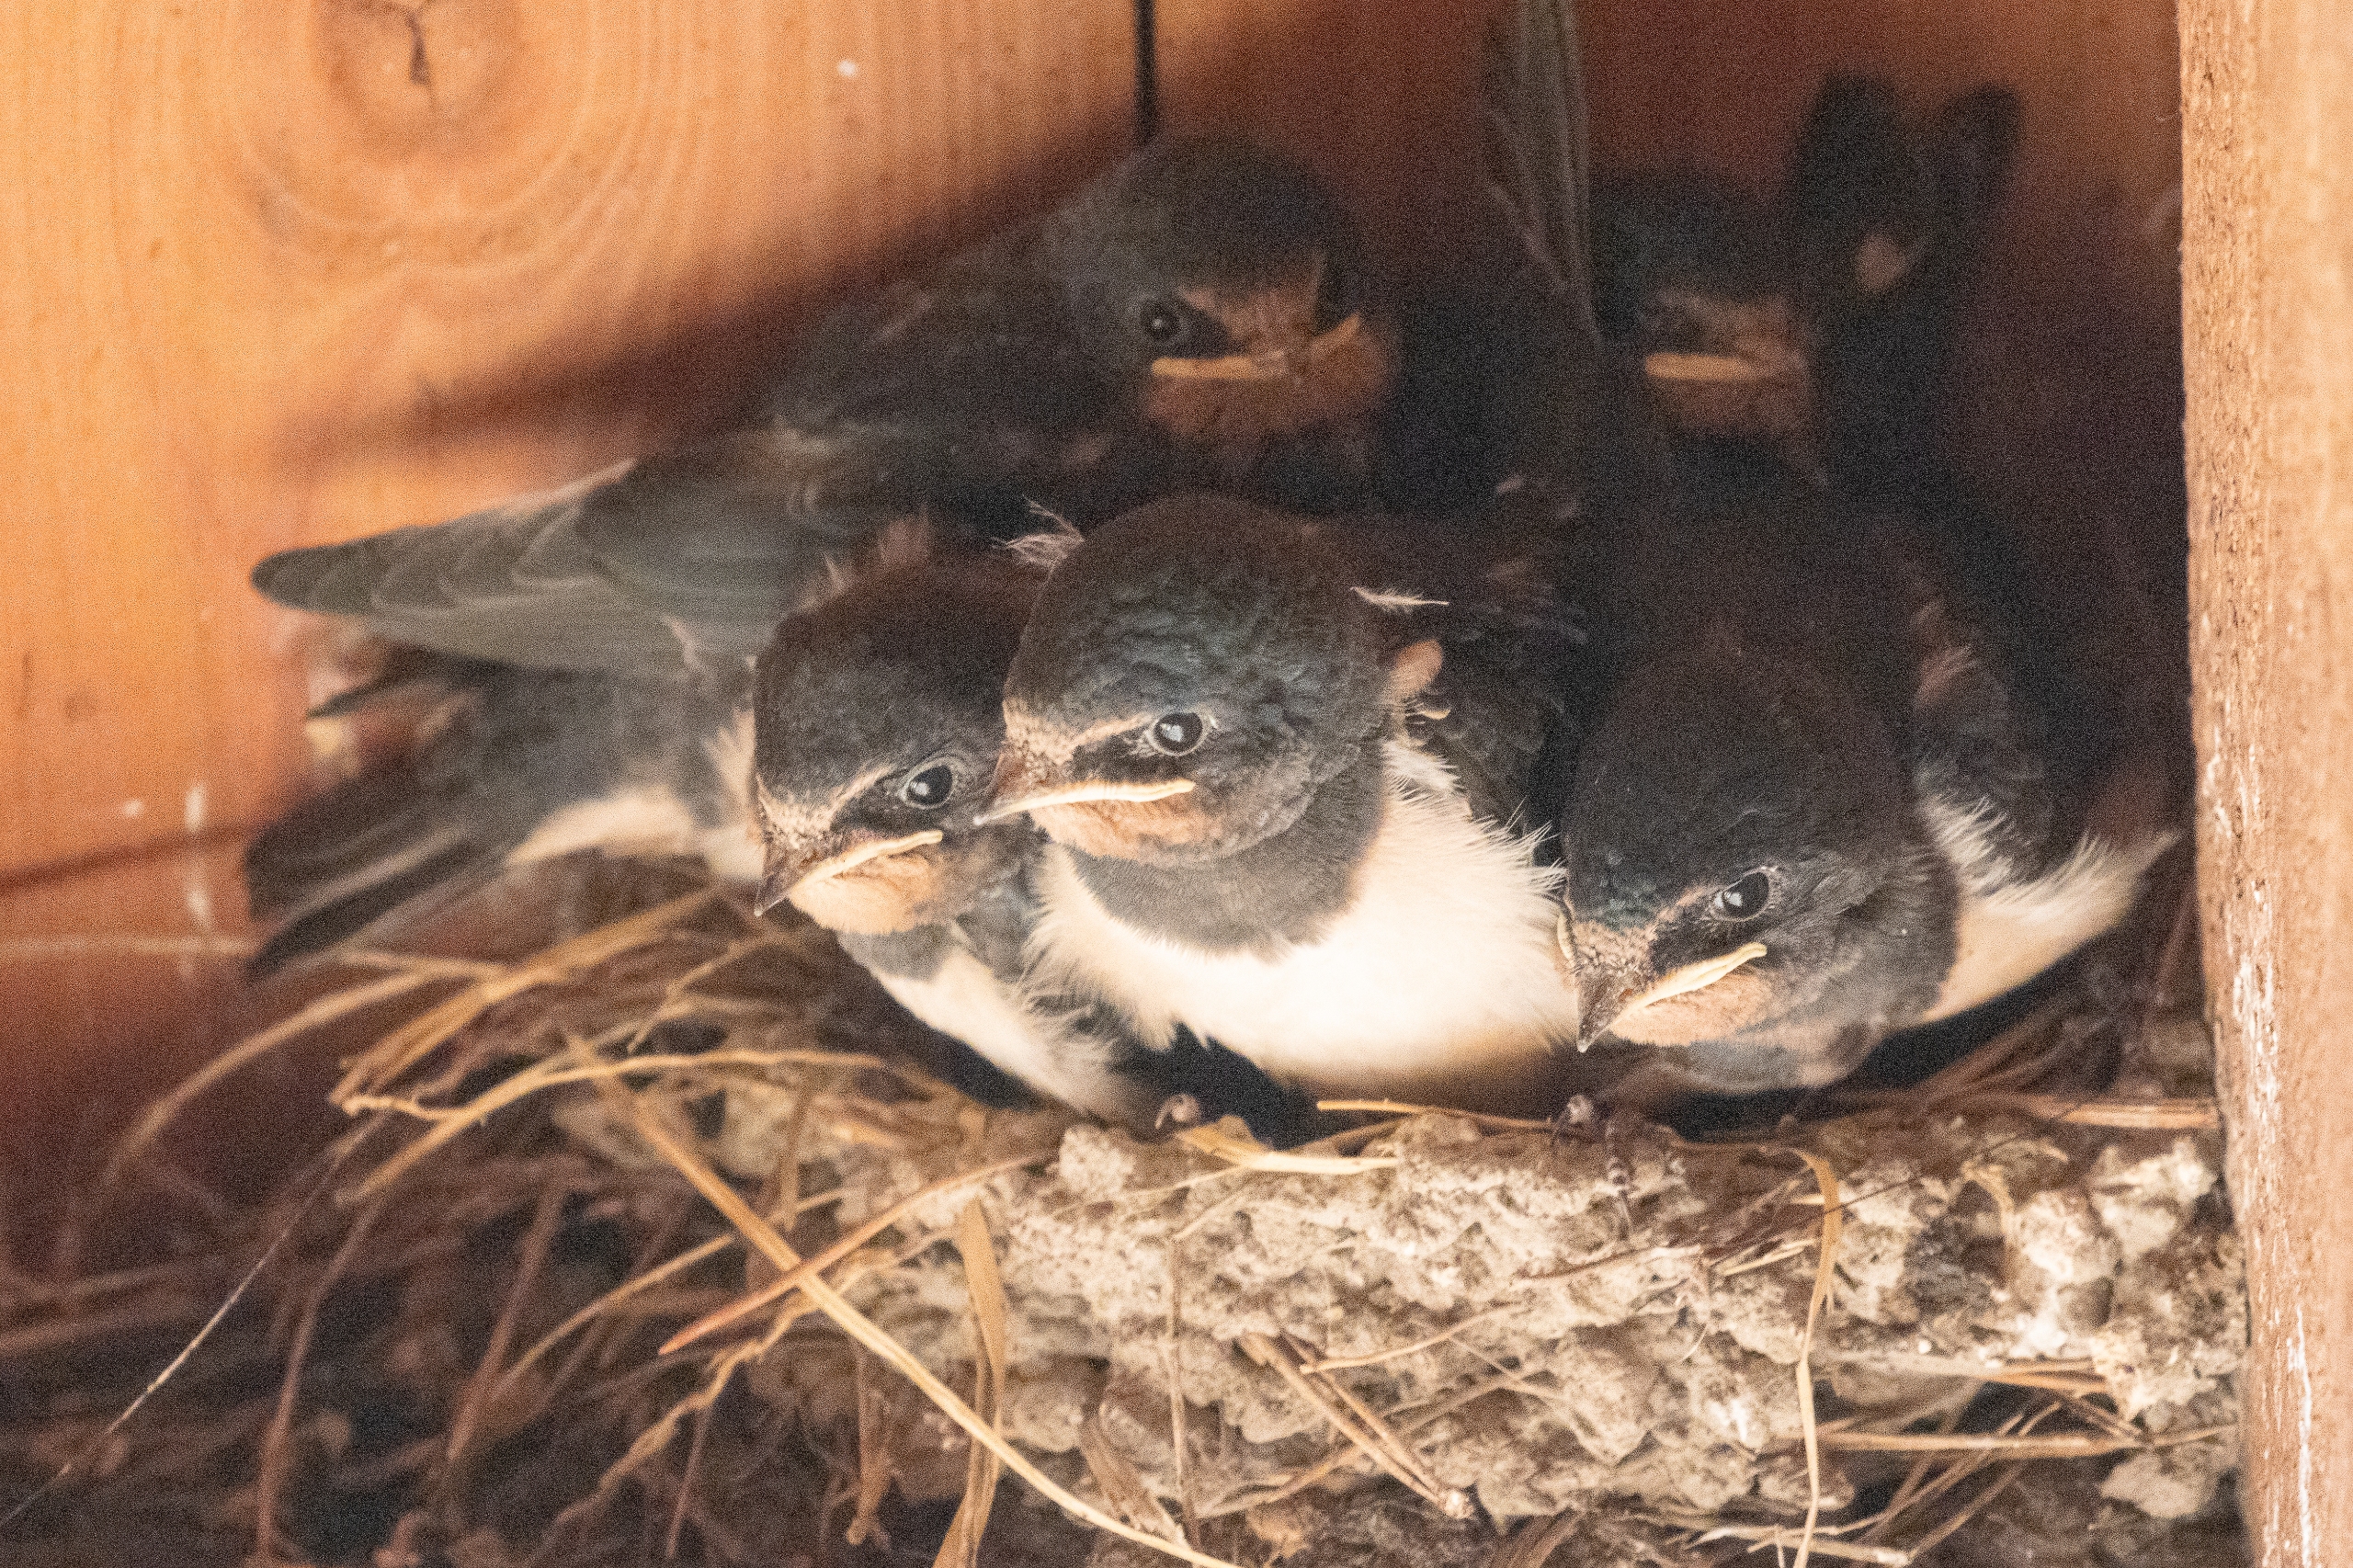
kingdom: Animalia
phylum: Chordata
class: Aves
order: Passeriformes
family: Hirundinidae
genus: Hirundo
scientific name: Hirundo rustica
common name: Landsvale
